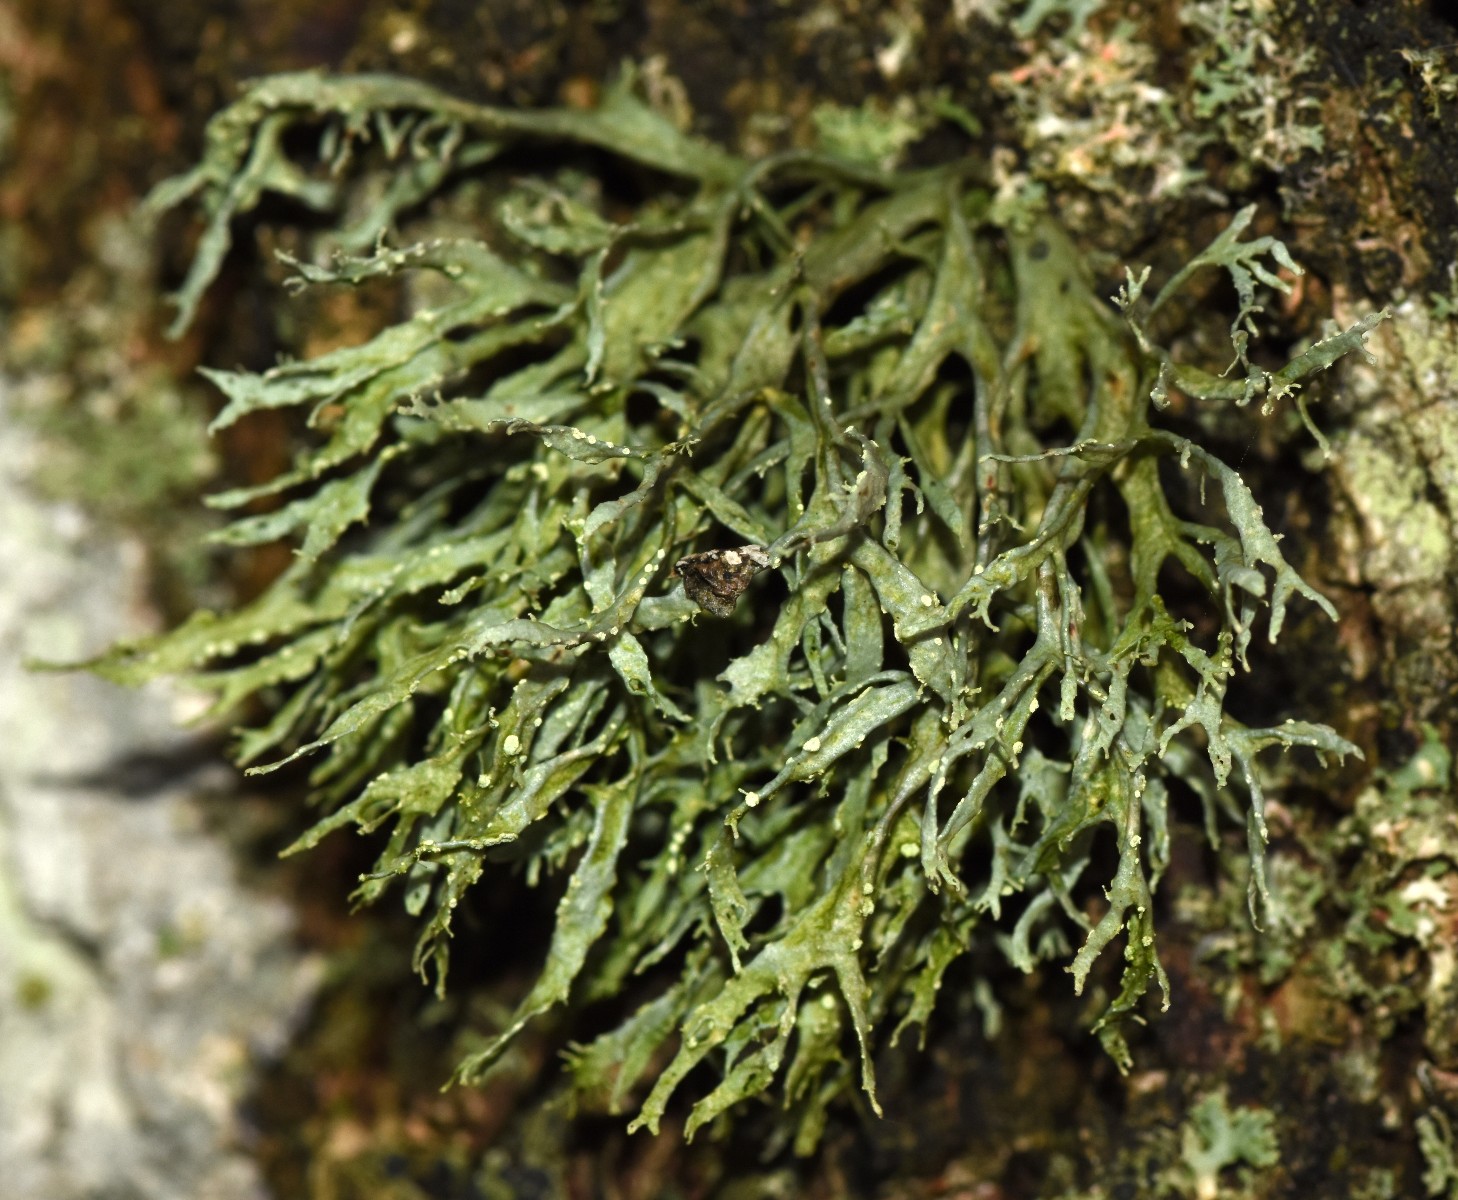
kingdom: Fungi
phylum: Ascomycota
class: Lecanoromycetes
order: Lecanorales
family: Ramalinaceae
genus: Ramalina
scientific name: Ramalina farinacea
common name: melet grenlav
